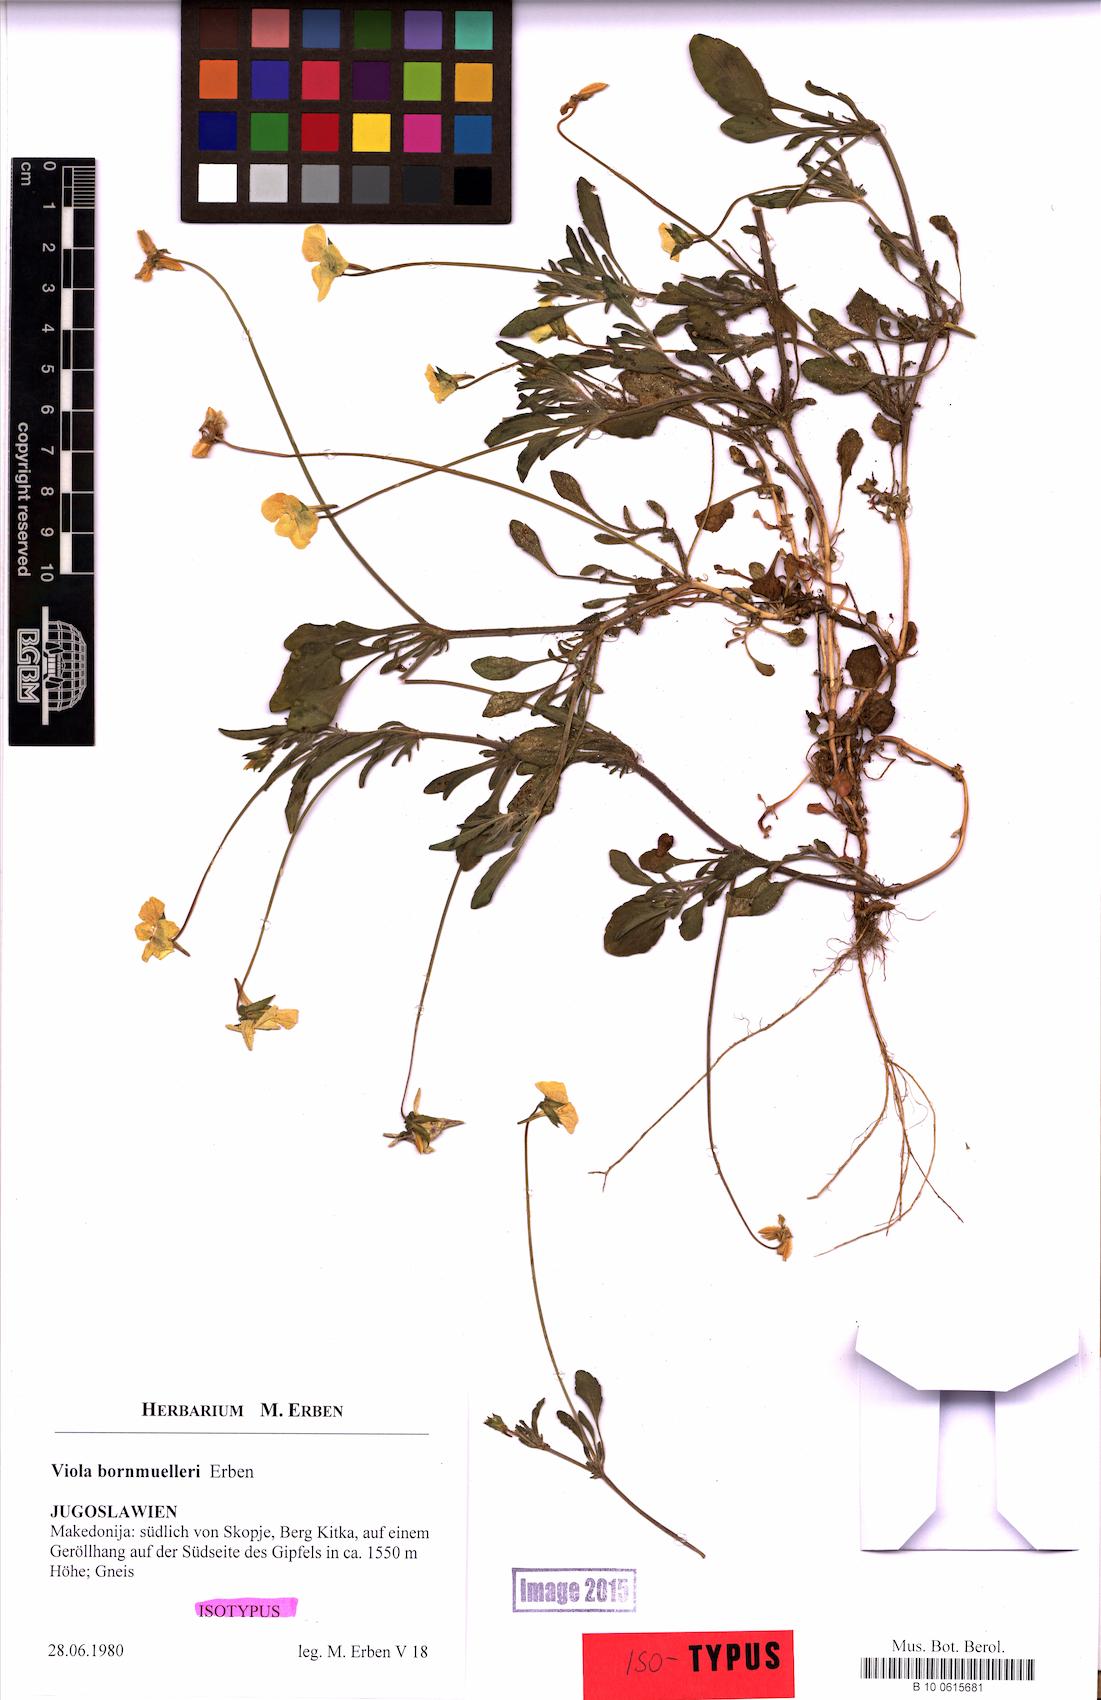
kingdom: Plantae
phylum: Tracheophyta
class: Magnoliopsida
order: Malpighiales
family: Violaceae
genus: Viola
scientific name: Viola bornmuelleri
